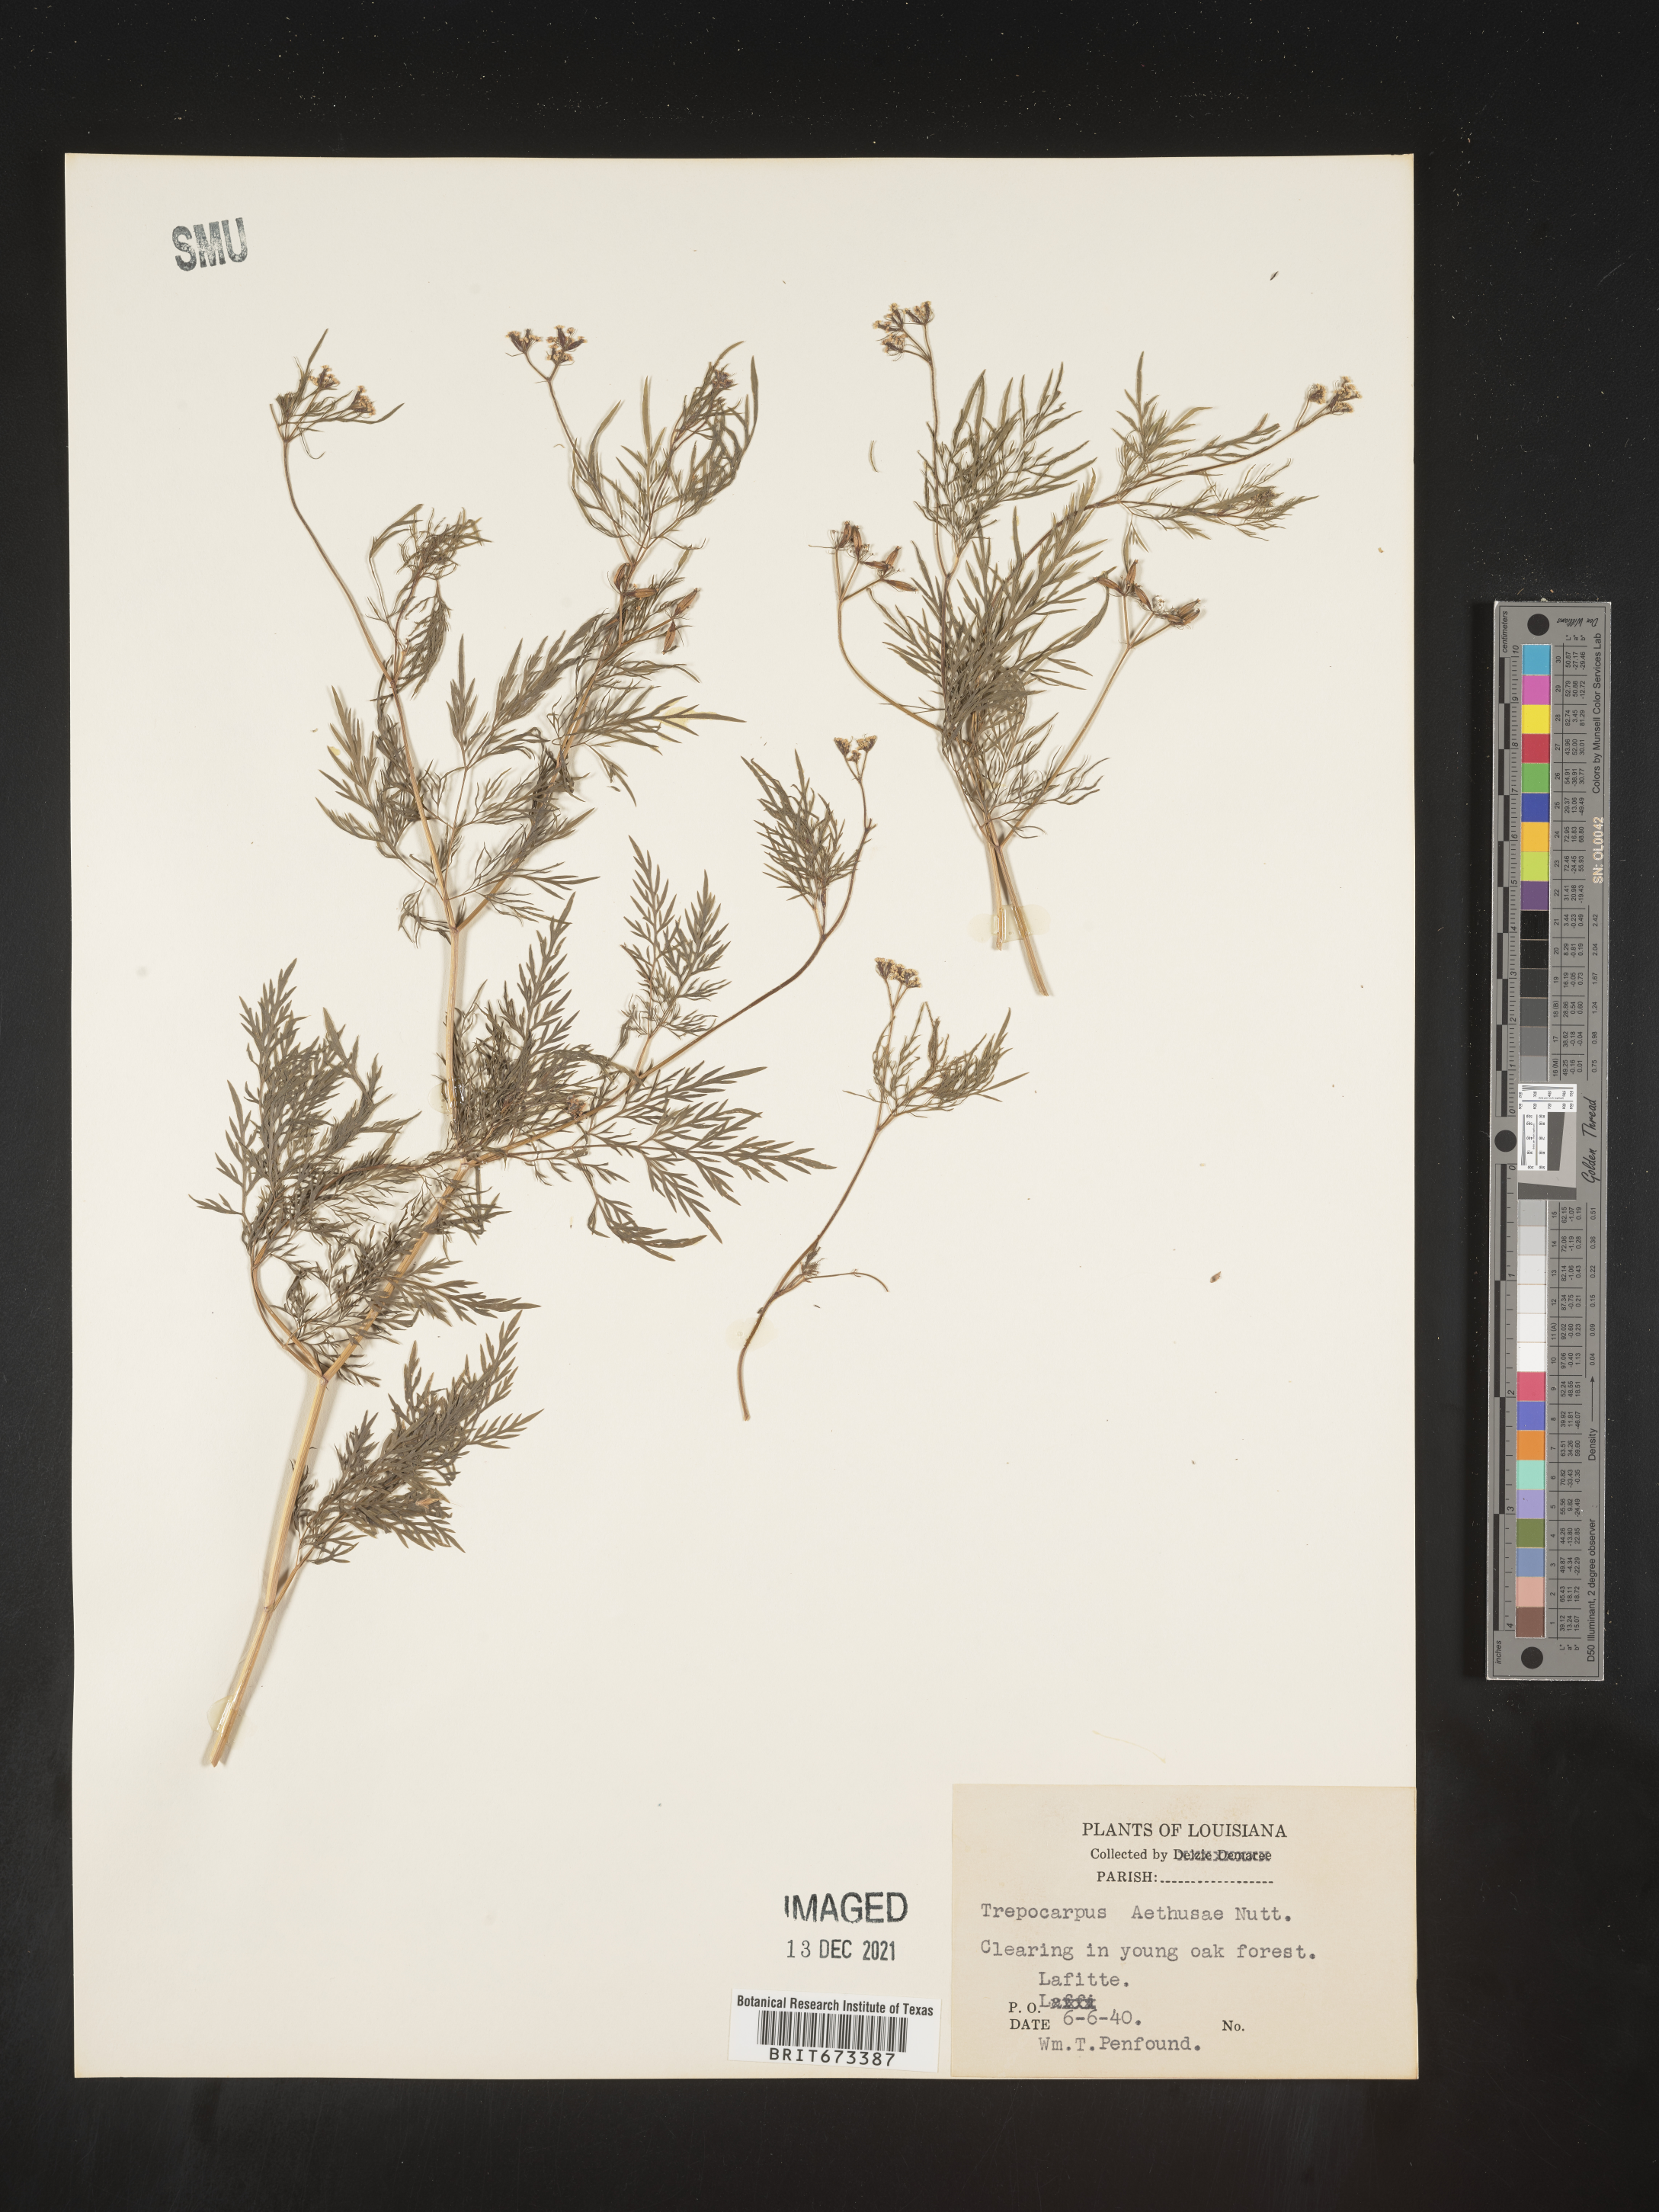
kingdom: Plantae
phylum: Tracheophyta
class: Magnoliopsida
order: Apiales
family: Apiaceae
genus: Trepocarpus
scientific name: Trepocarpus aethusae
